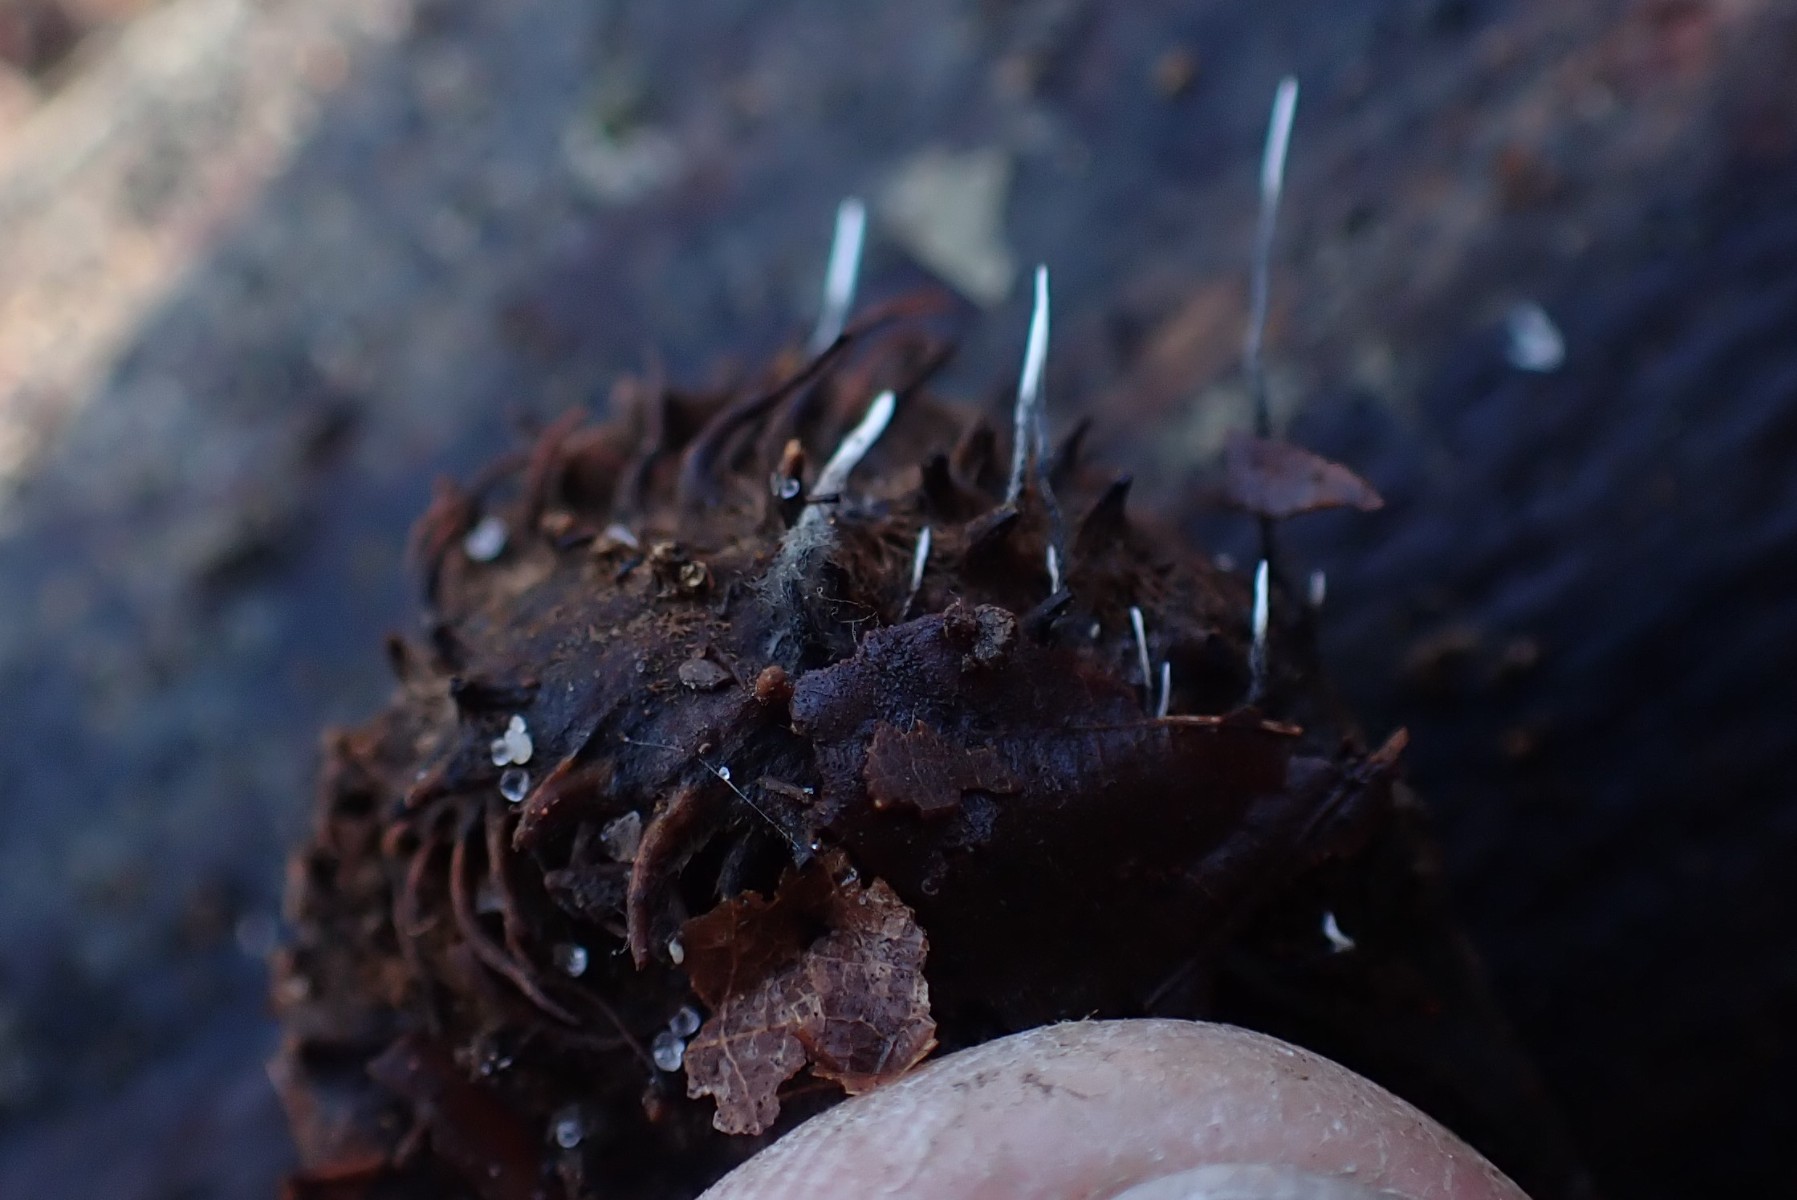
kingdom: Fungi
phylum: Ascomycota
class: Sordariomycetes
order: Xylariales
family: Xylariaceae
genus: Xylaria
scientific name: Xylaria carpophila
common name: bogskål-stødsvamp
